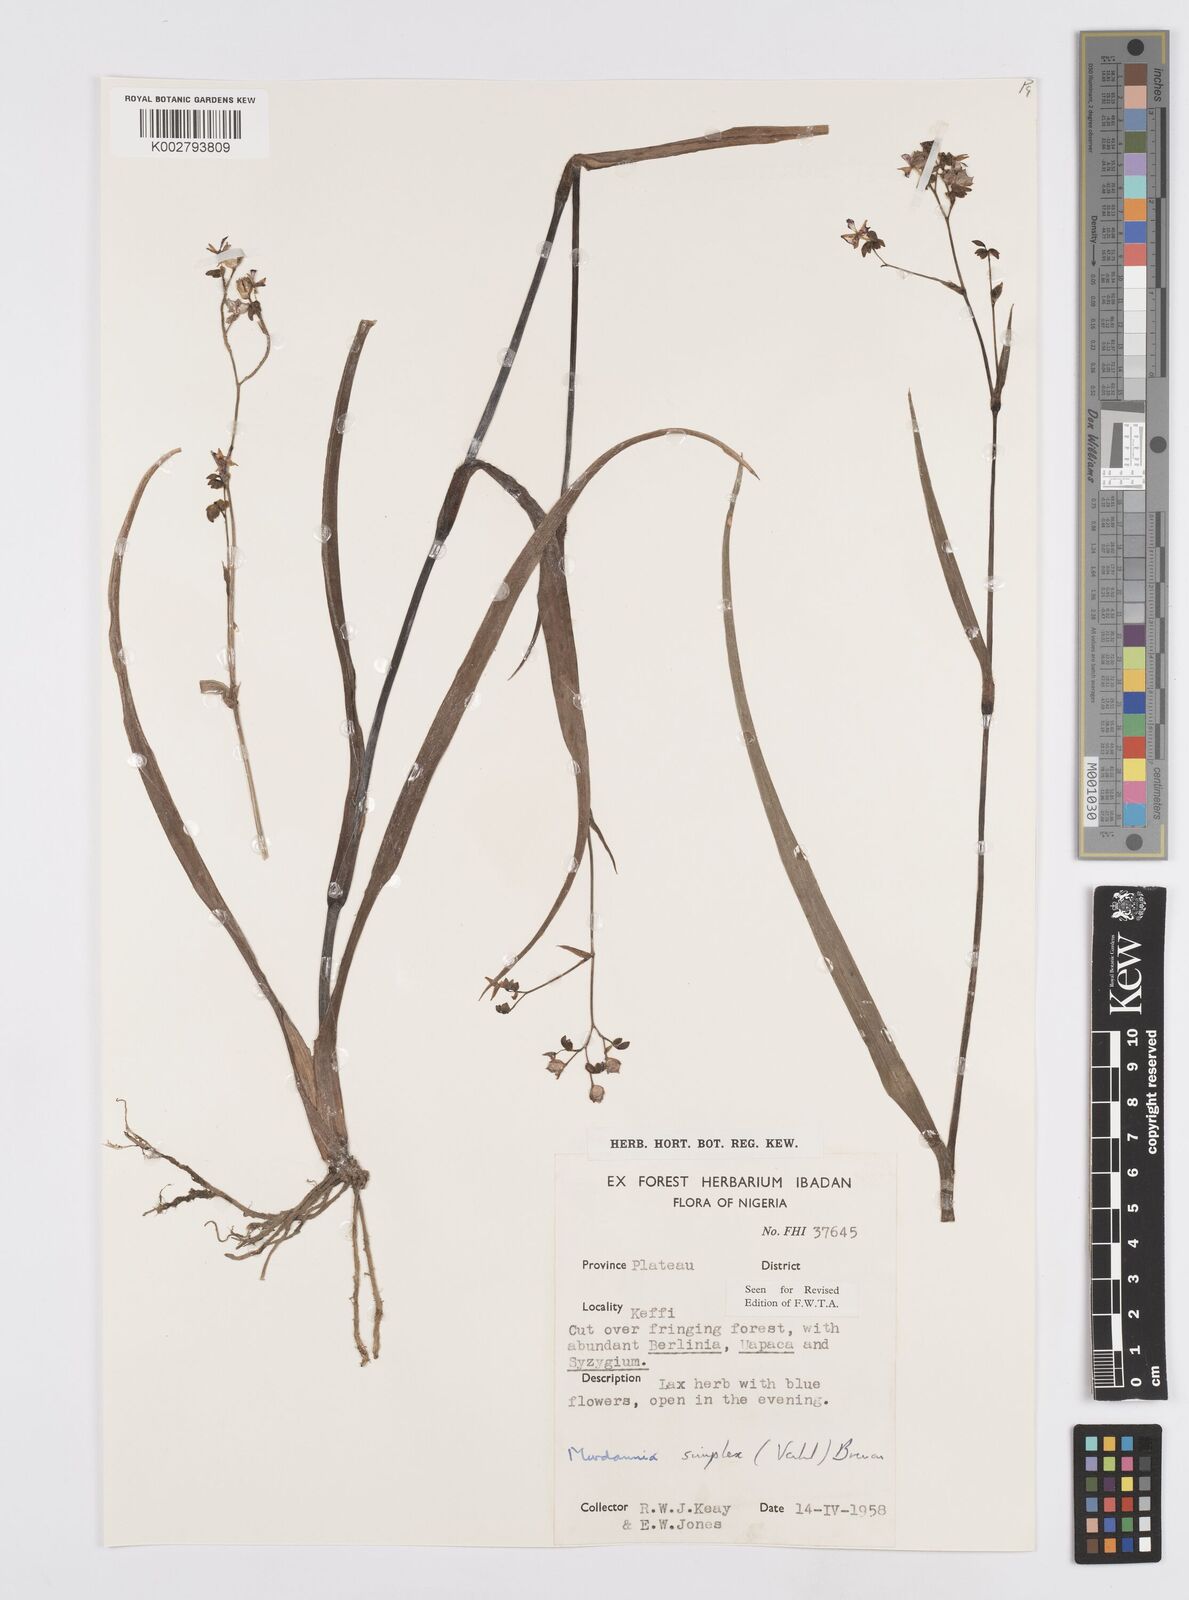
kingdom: Plantae
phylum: Tracheophyta
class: Liliopsida
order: Commelinales
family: Commelinaceae
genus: Murdannia
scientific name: Murdannia simplex
